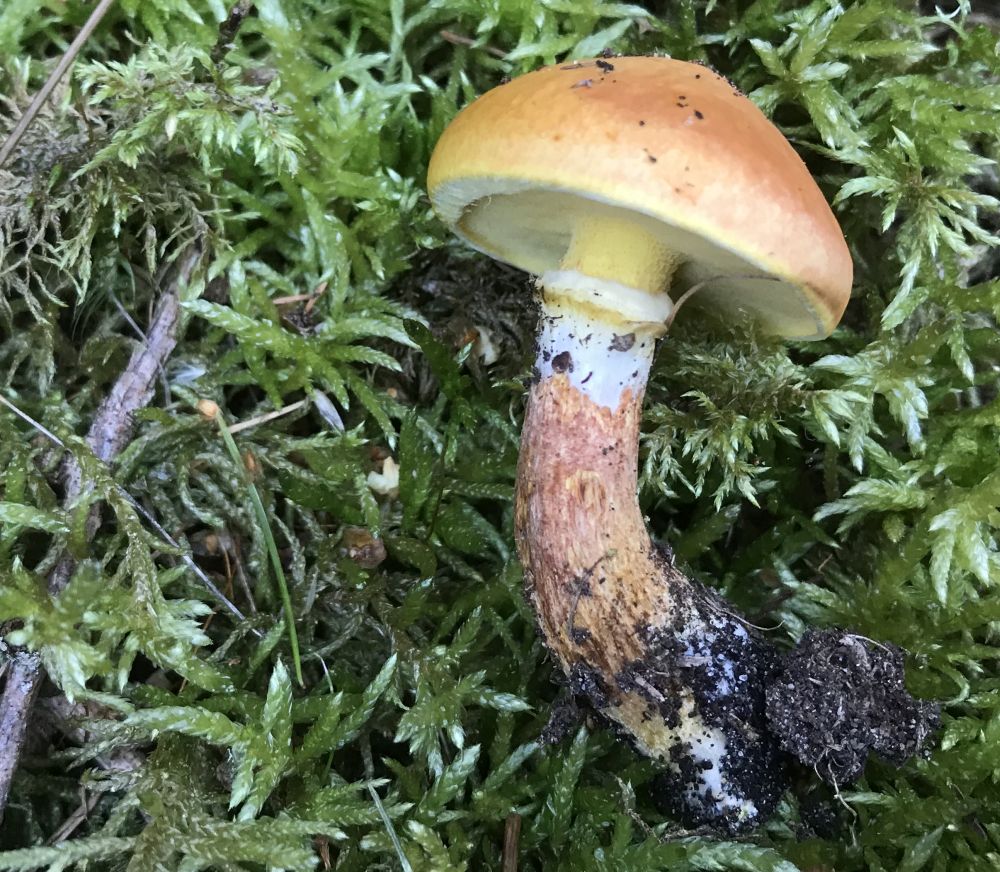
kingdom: Fungi
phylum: Basidiomycota
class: Agaricomycetes
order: Boletales
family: Suillaceae
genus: Suillus
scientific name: Suillus grevillei
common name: lærke-slimrørhat
